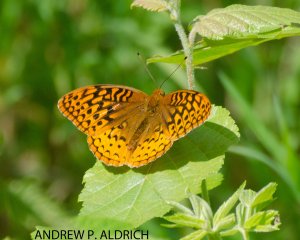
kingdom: Animalia
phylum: Arthropoda
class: Insecta
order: Lepidoptera
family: Nymphalidae
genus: Speyeria
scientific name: Speyeria cybele
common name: Great Spangled Fritillary
